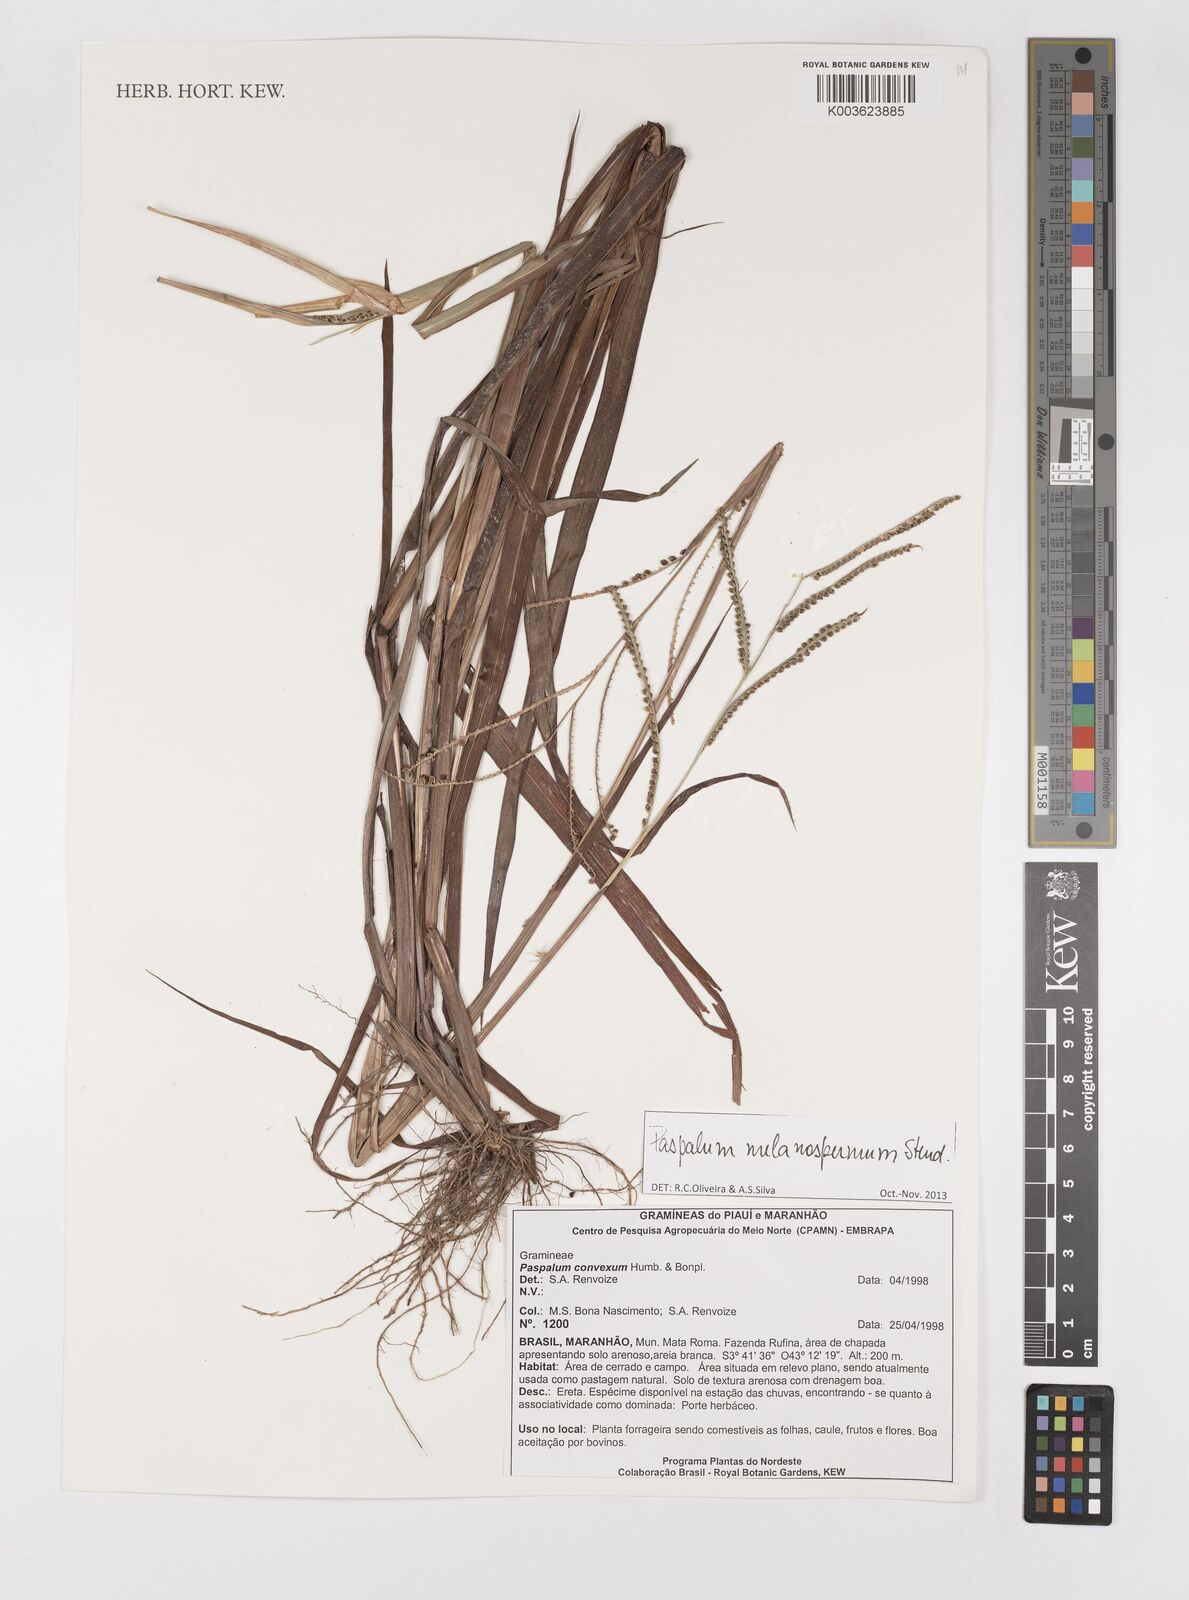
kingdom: Plantae
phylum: Tracheophyta
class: Liliopsida
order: Poales
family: Poaceae
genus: Paspalum
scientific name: Paspalum melanospermum
